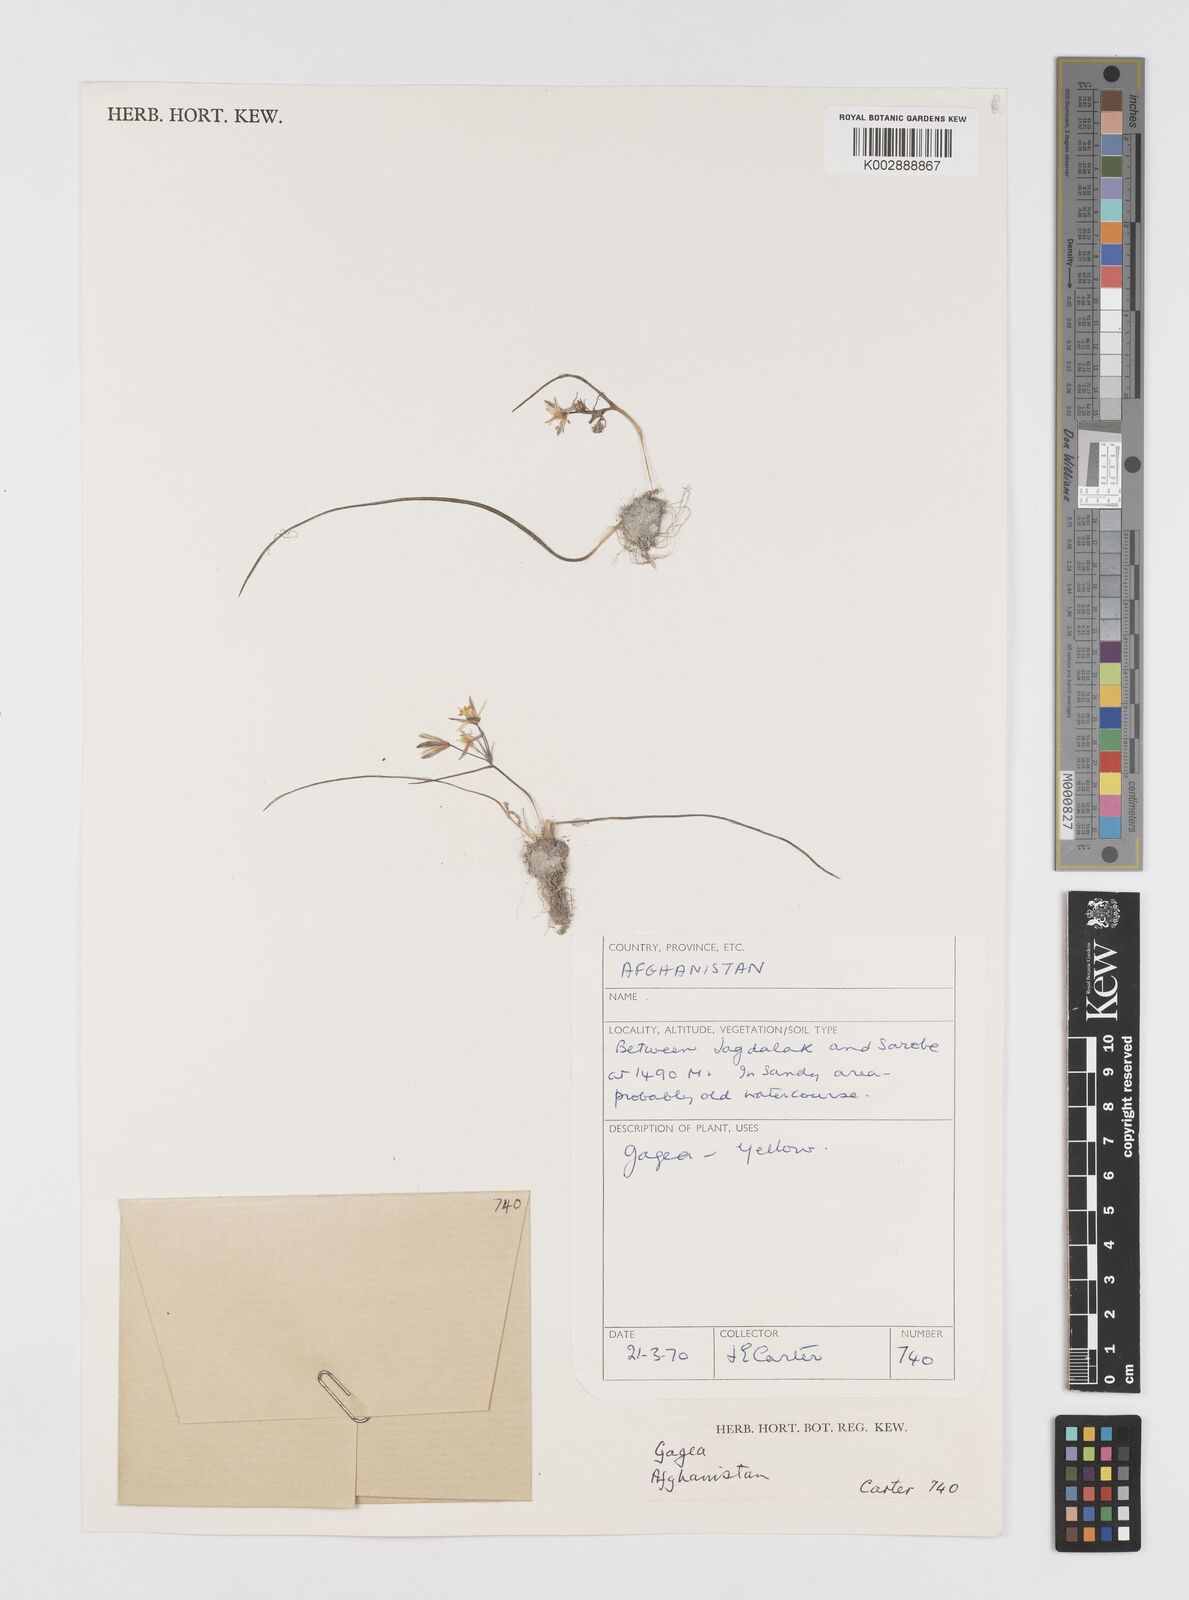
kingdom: Plantae
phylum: Tracheophyta
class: Liliopsida
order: Liliales
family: Liliaceae
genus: Gagea
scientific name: Gagea
